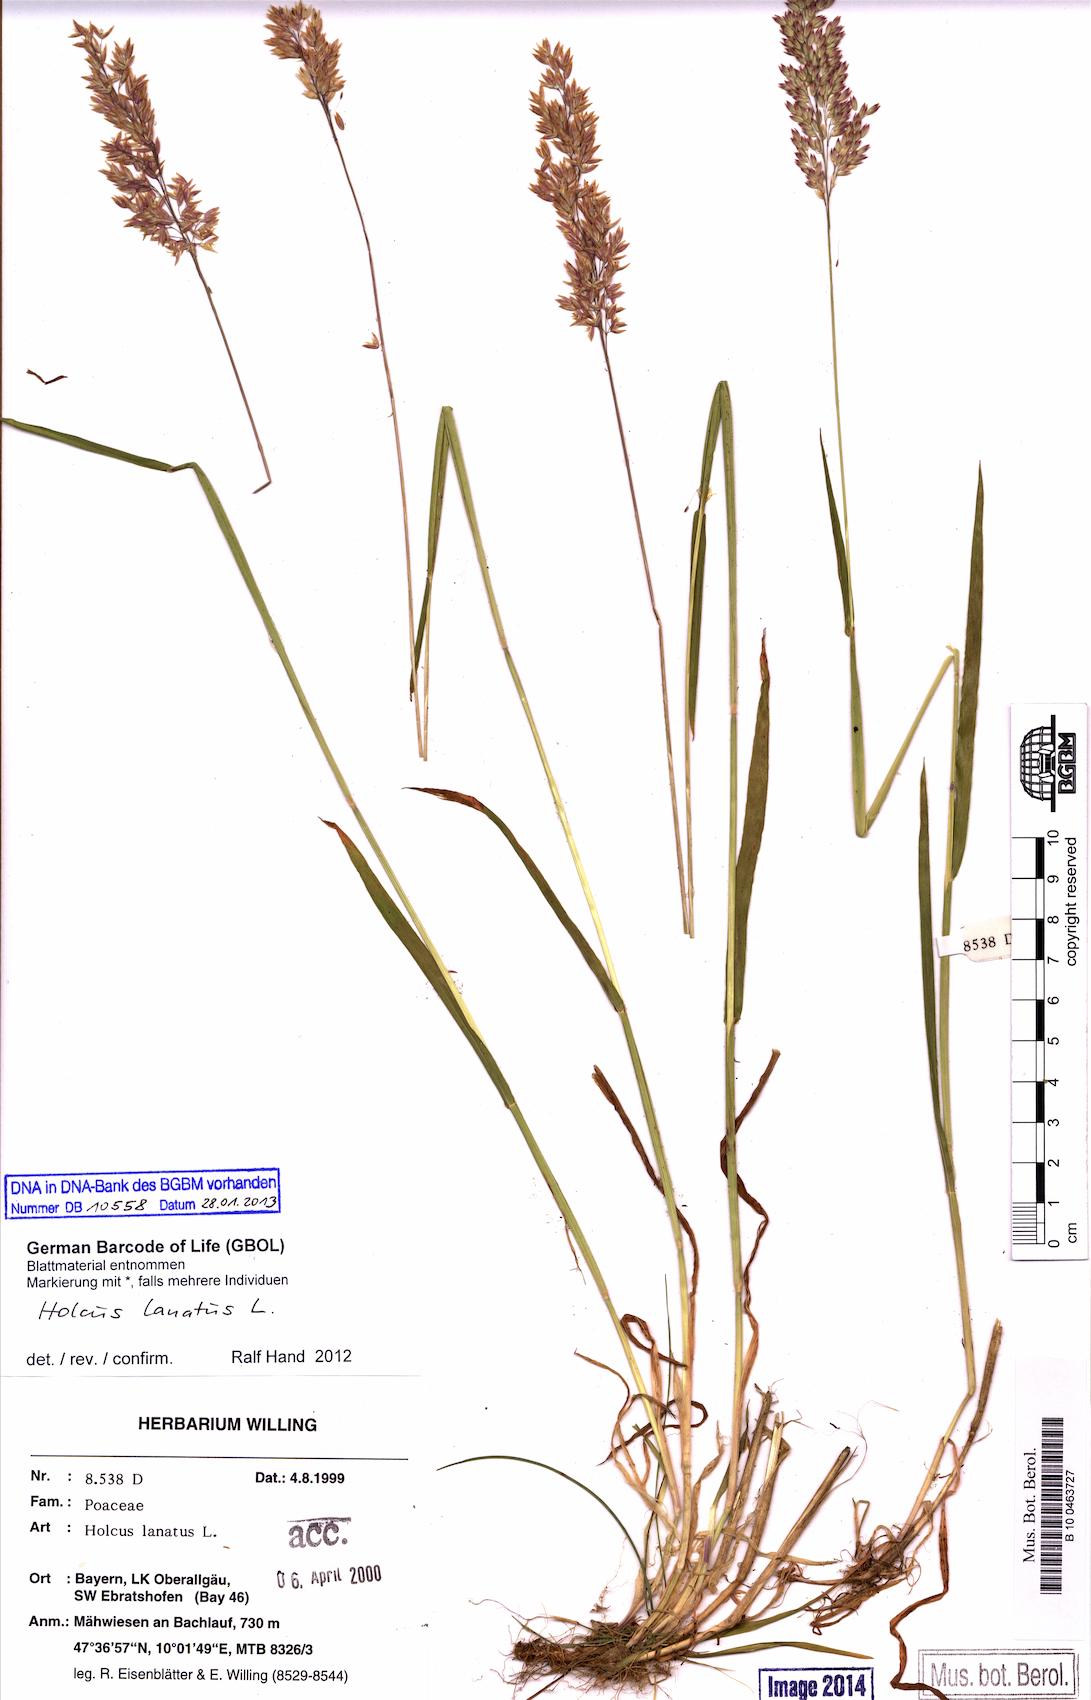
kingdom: Plantae
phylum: Tracheophyta
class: Liliopsida
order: Poales
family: Poaceae
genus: Holcus
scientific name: Holcus lanatus
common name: Yorkshire-fog
